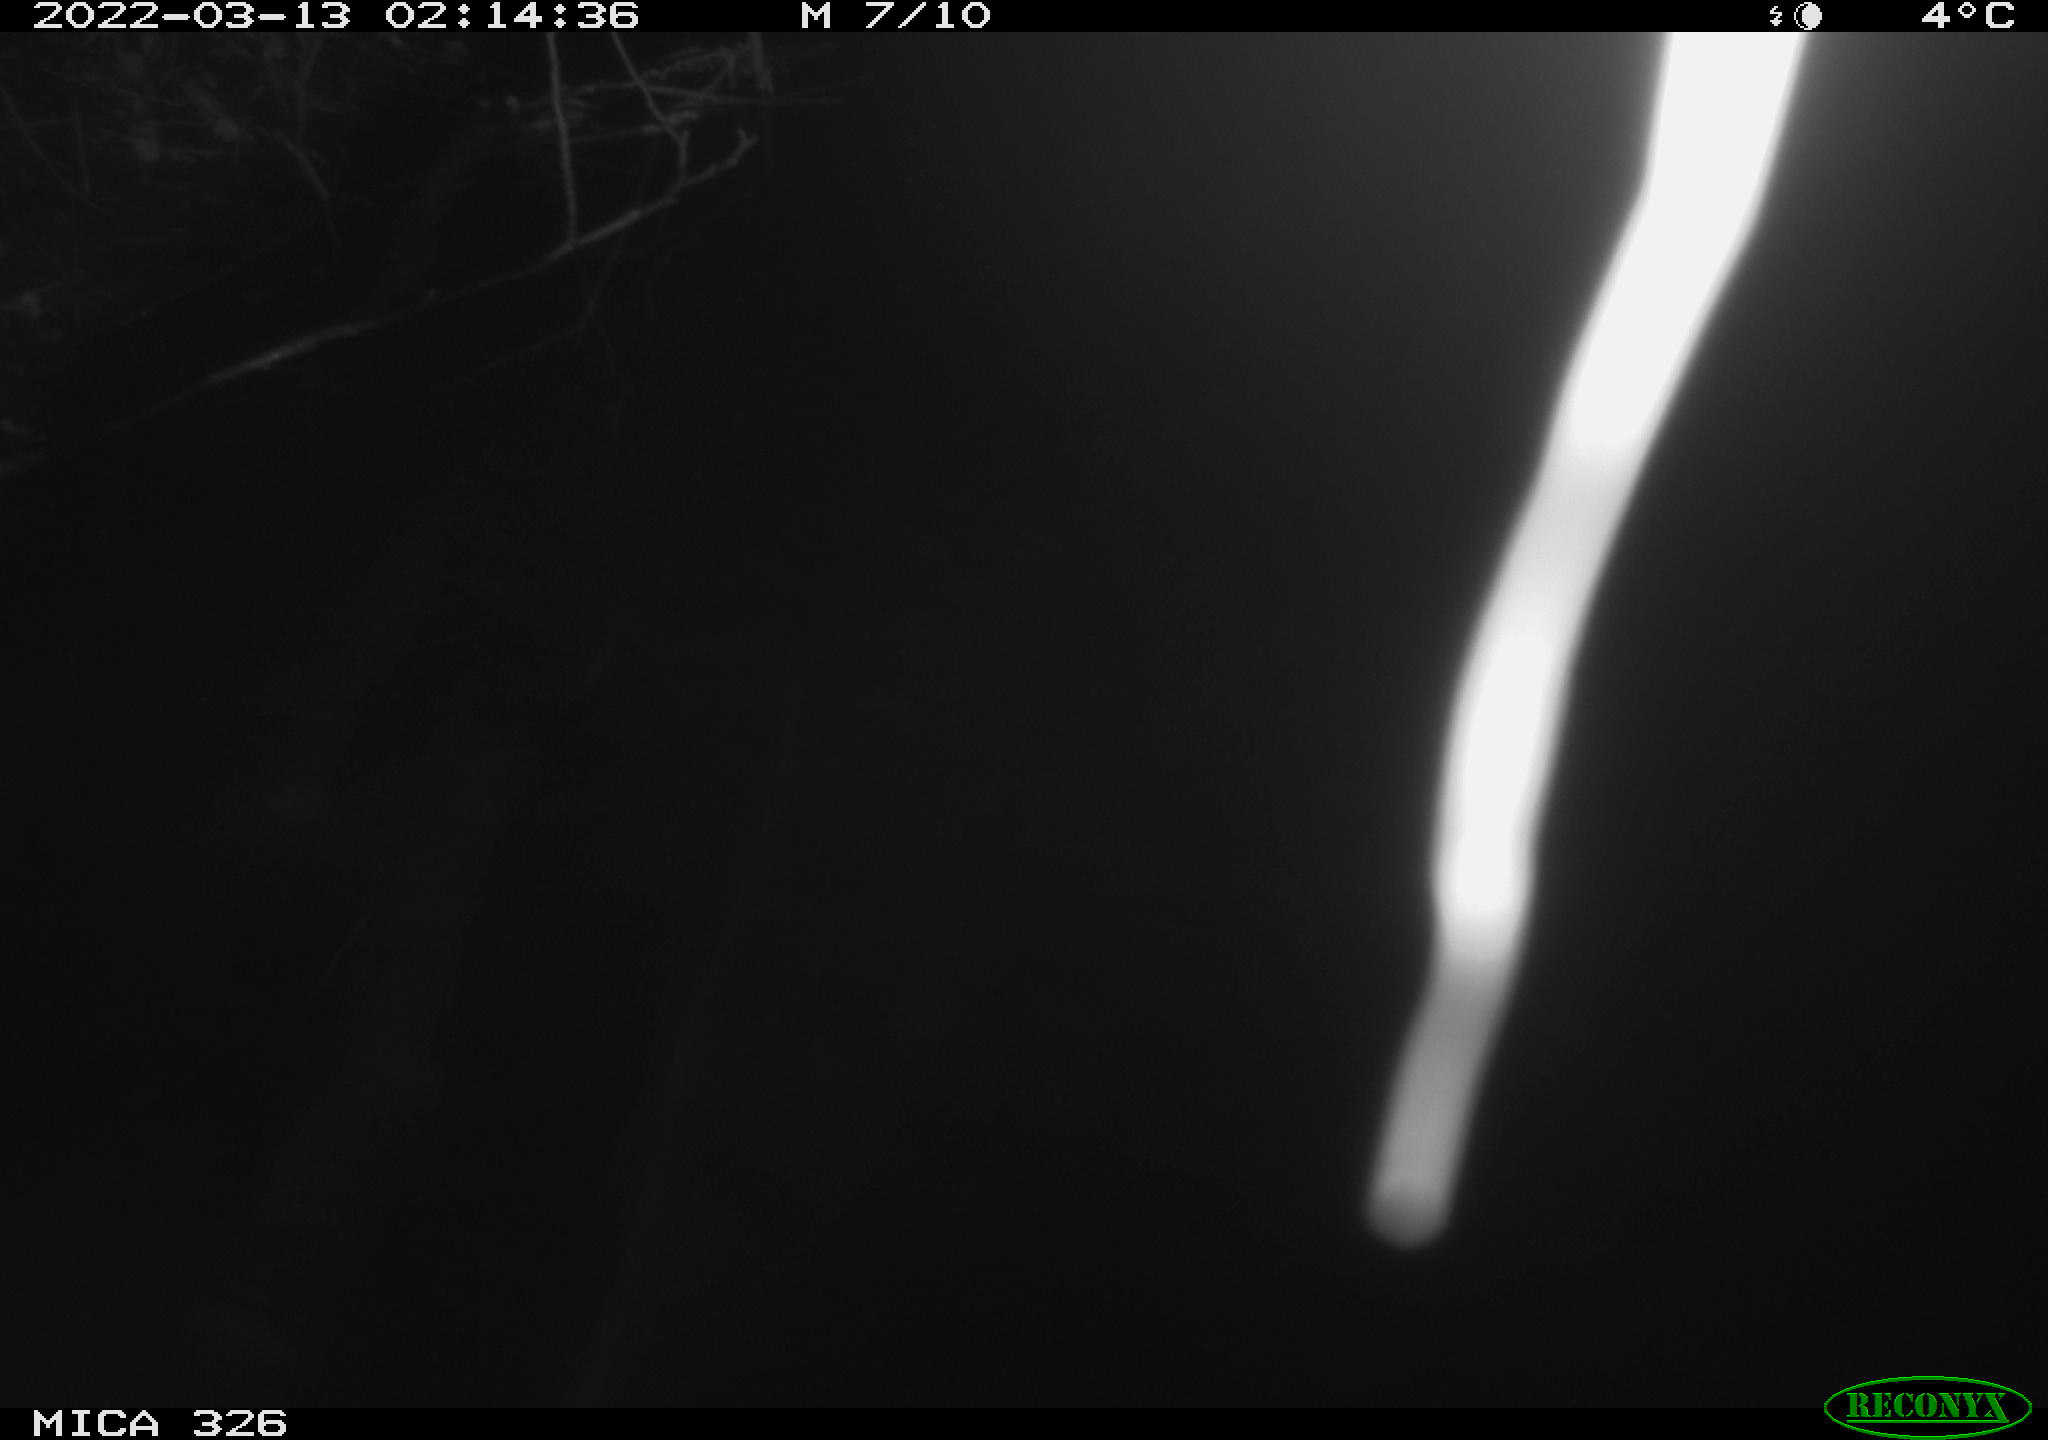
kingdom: Animalia
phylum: Chordata
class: Mammalia
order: Rodentia
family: Cricetidae
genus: Ondatra
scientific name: Ondatra zibethicus
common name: Muskrat
